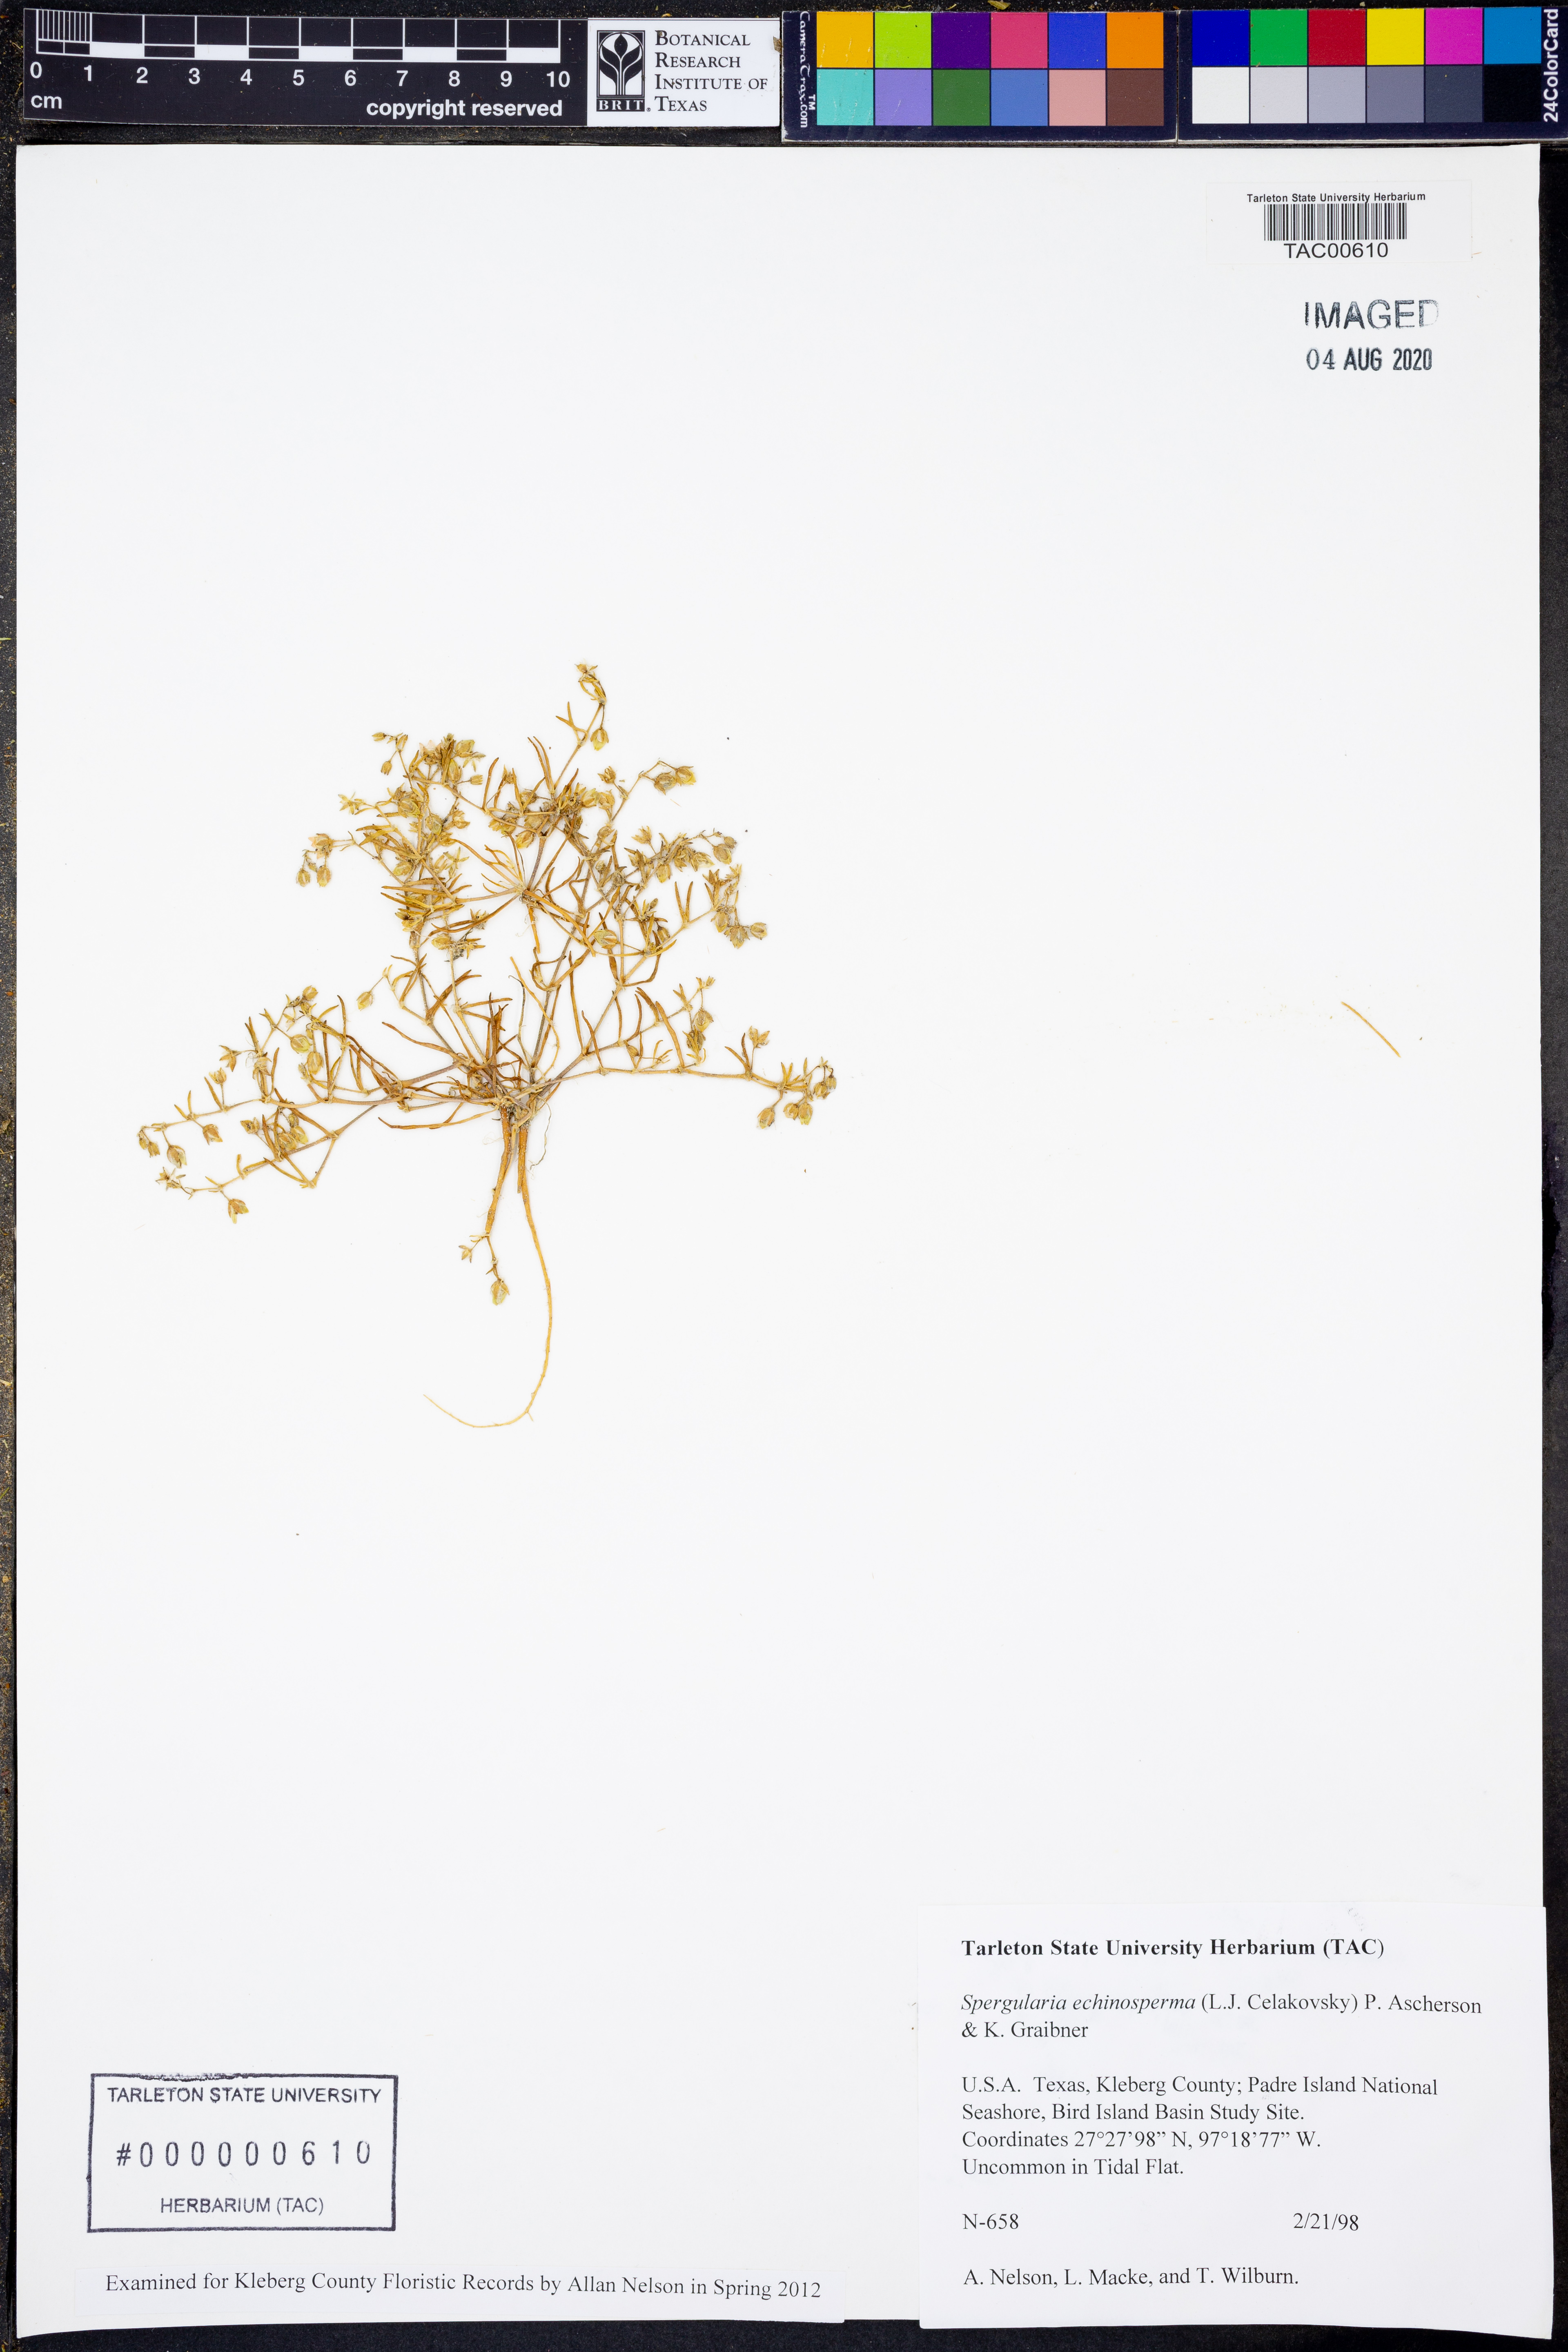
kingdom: Plantae
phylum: Tracheophyta
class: Magnoliopsida
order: Caryophyllales
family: Caryophyllaceae
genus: Spergularia
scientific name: Spergularia echinosperma
